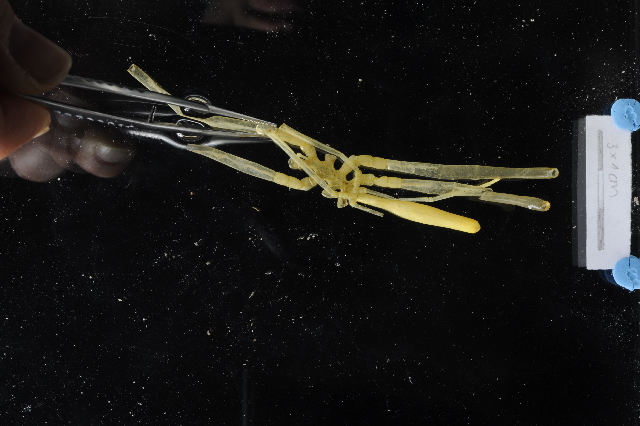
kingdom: Animalia
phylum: Arthropoda
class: Pycnogonida
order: Pantopoda
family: Colossendeidae
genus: Colossendeis
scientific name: Colossendeis megalonyx
